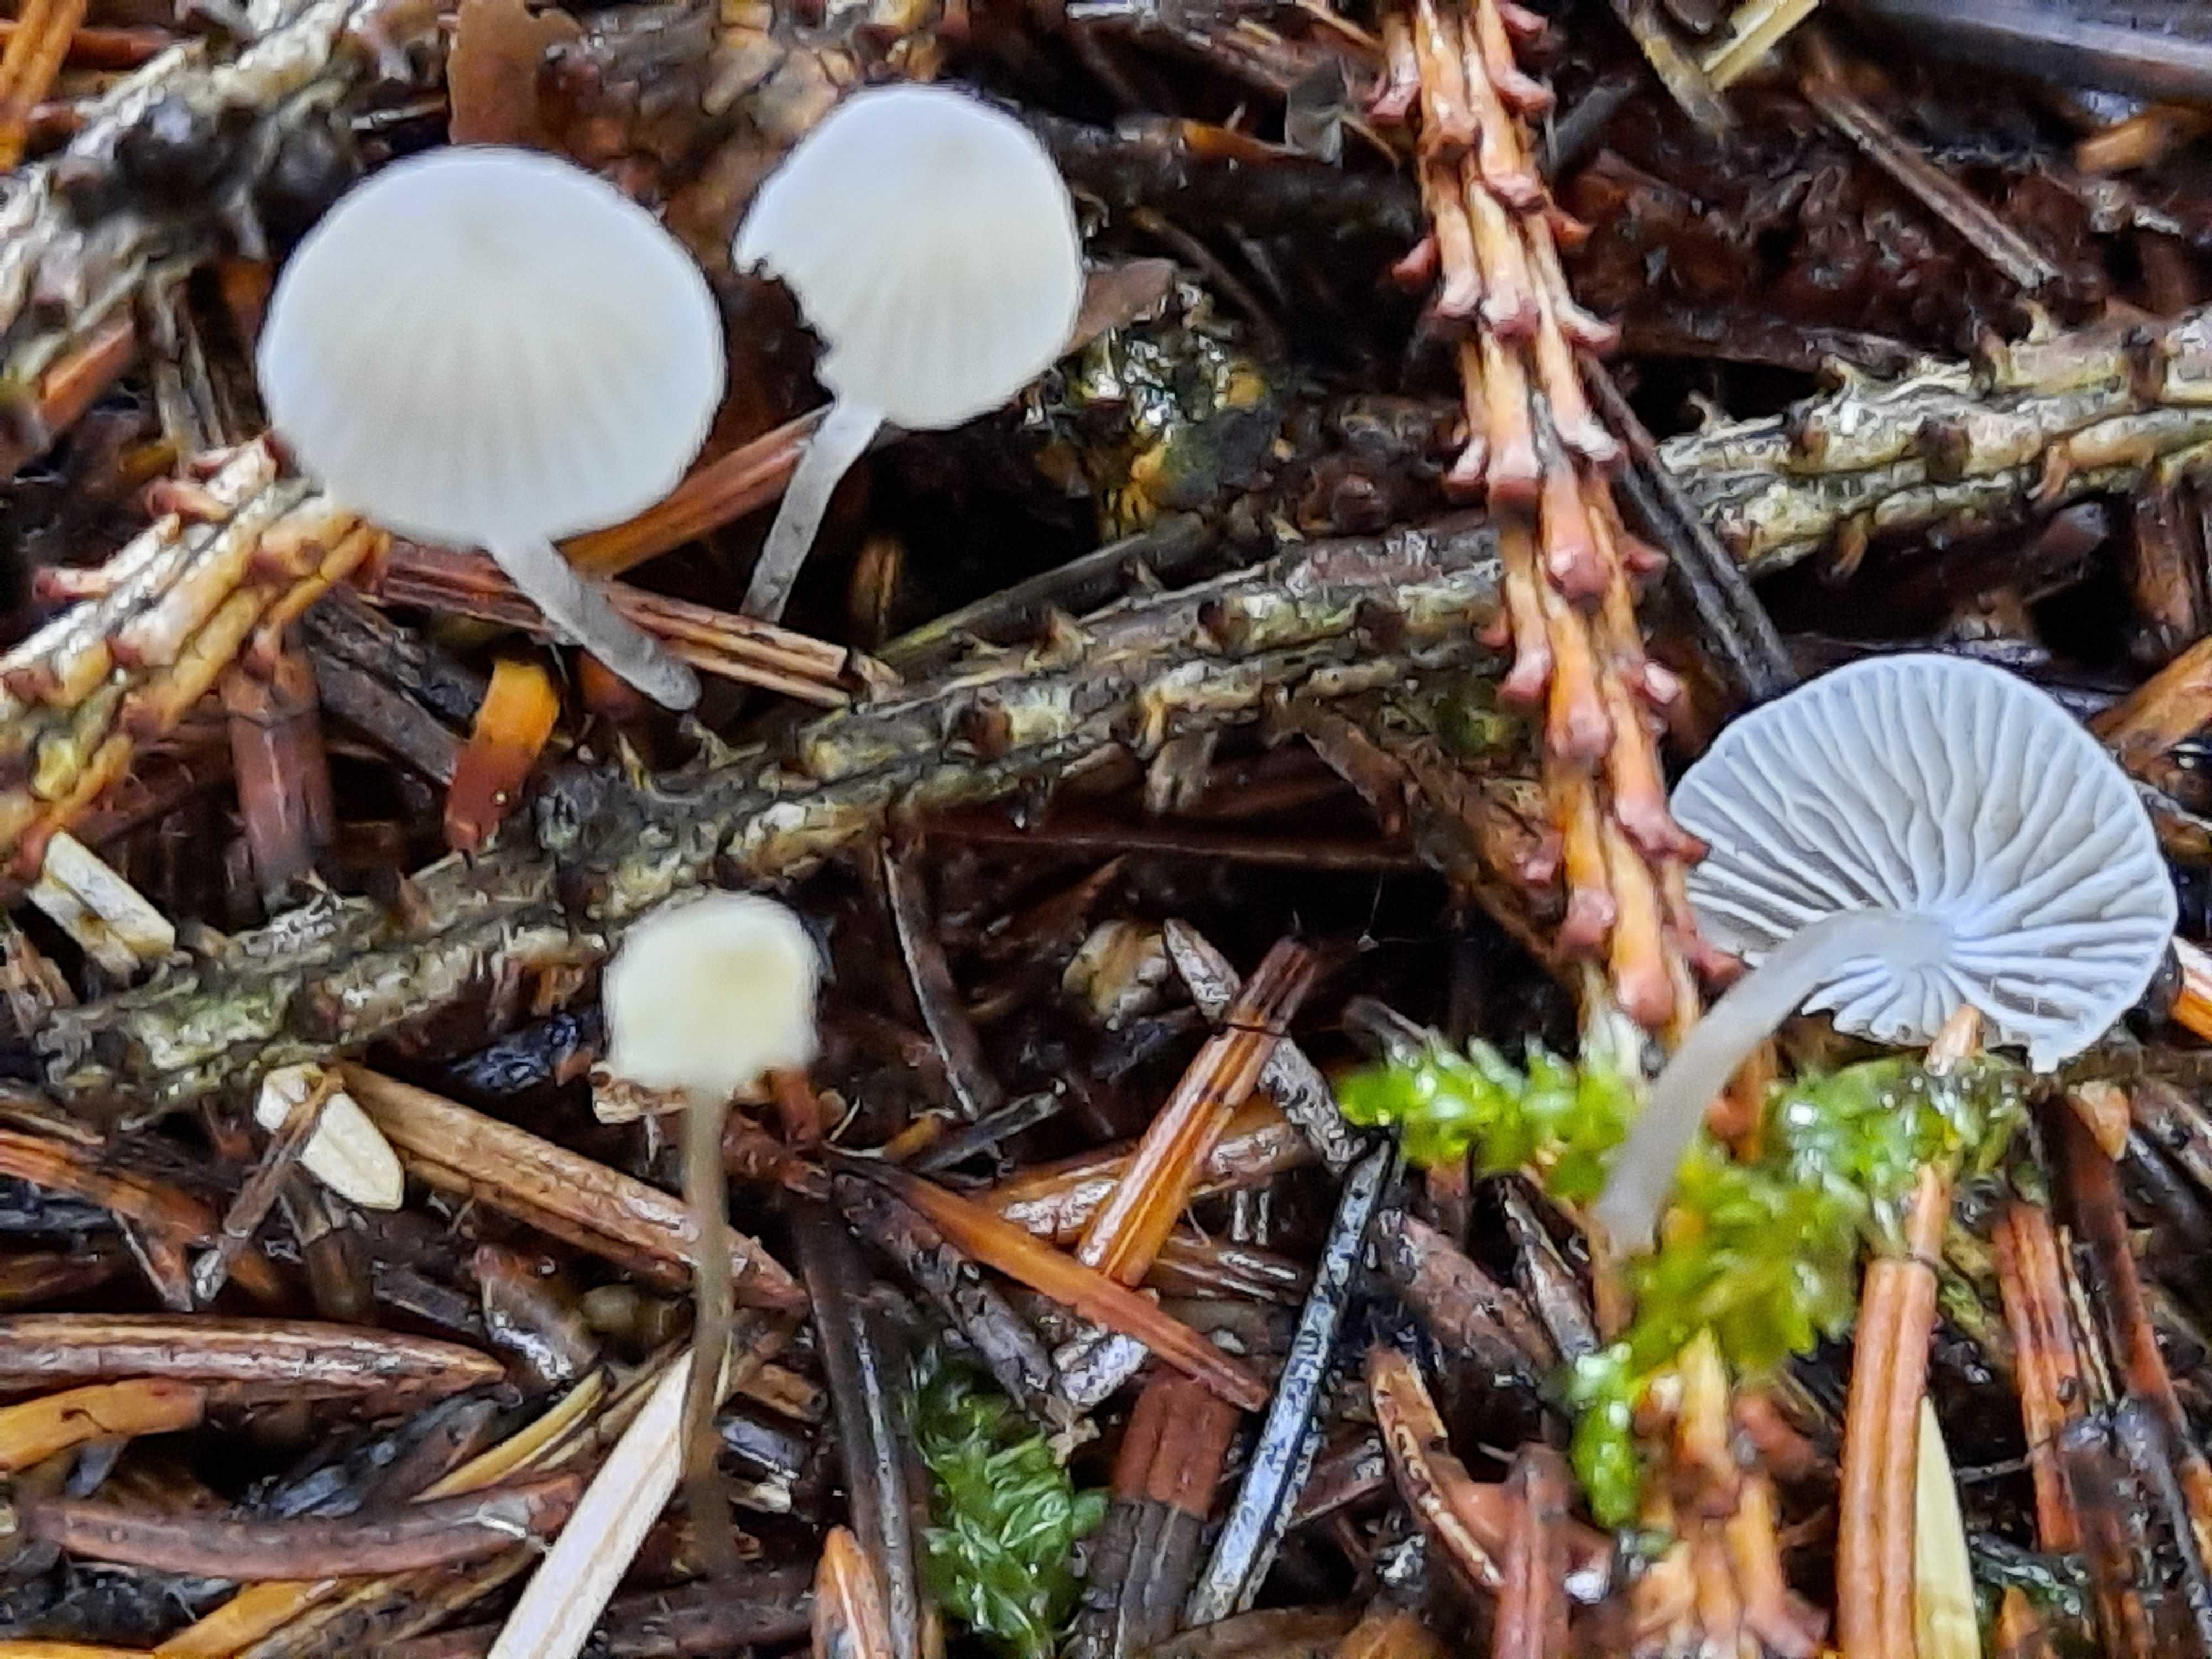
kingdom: Fungi
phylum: Basidiomycota
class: Agaricomycetes
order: Agaricales
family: Mycenaceae
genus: Mycena
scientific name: Mycena cinerella
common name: mel-huesvamp
